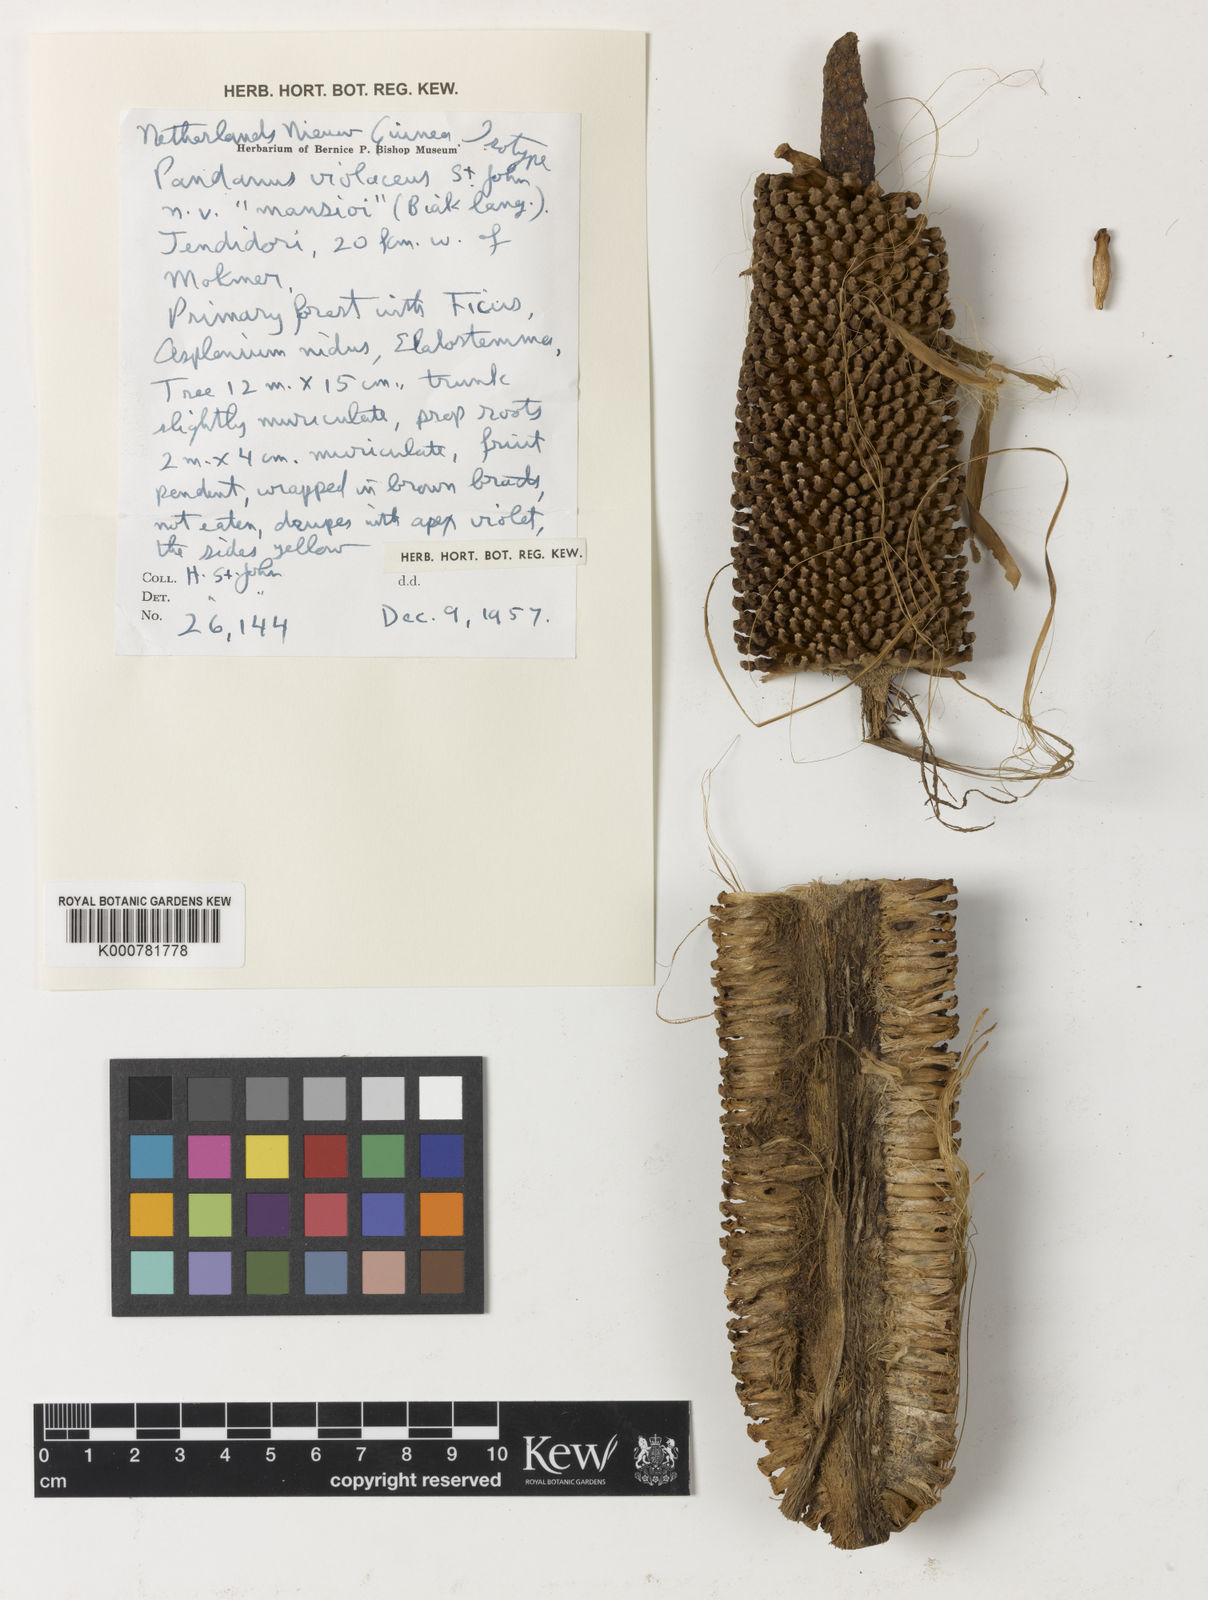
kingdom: Plantae
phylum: Tracheophyta
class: Liliopsida
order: Pandanales
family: Pandanaceae
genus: Pandanus
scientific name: Pandanus
